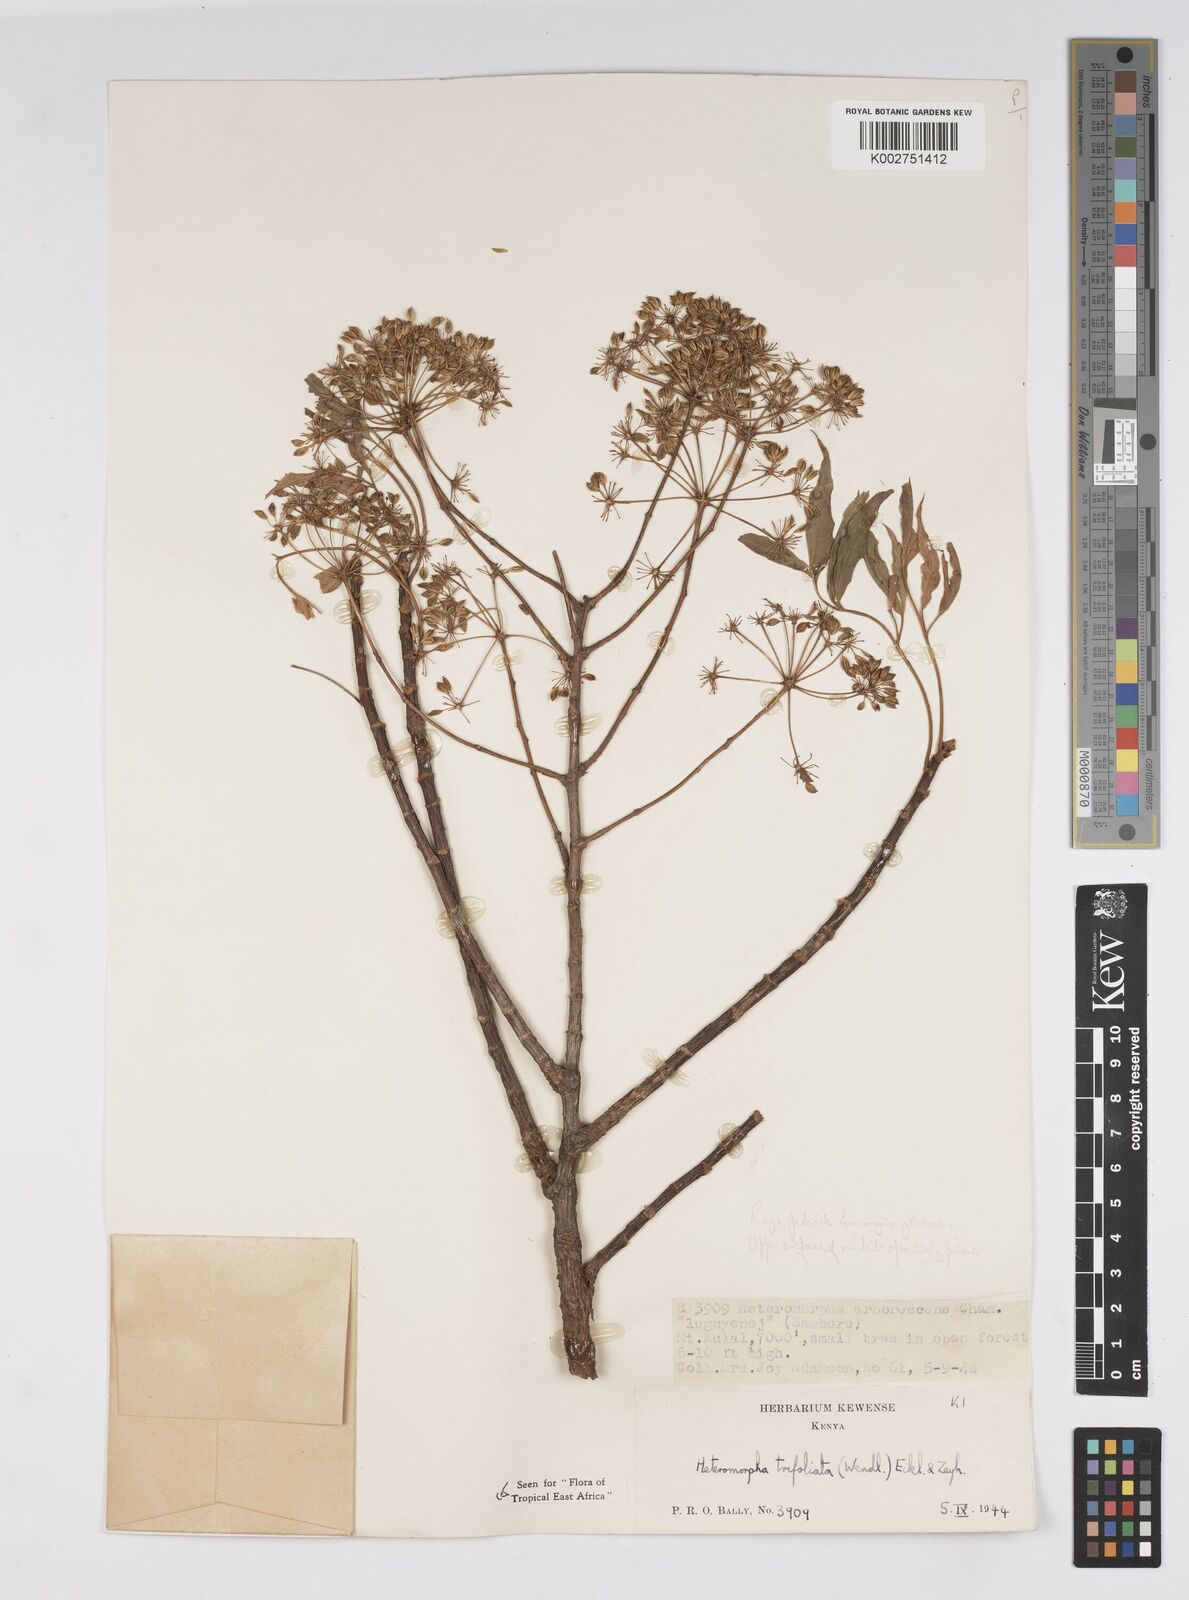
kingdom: Plantae
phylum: Tracheophyta
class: Magnoliopsida
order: Apiales
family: Apiaceae
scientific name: Apiaceae
